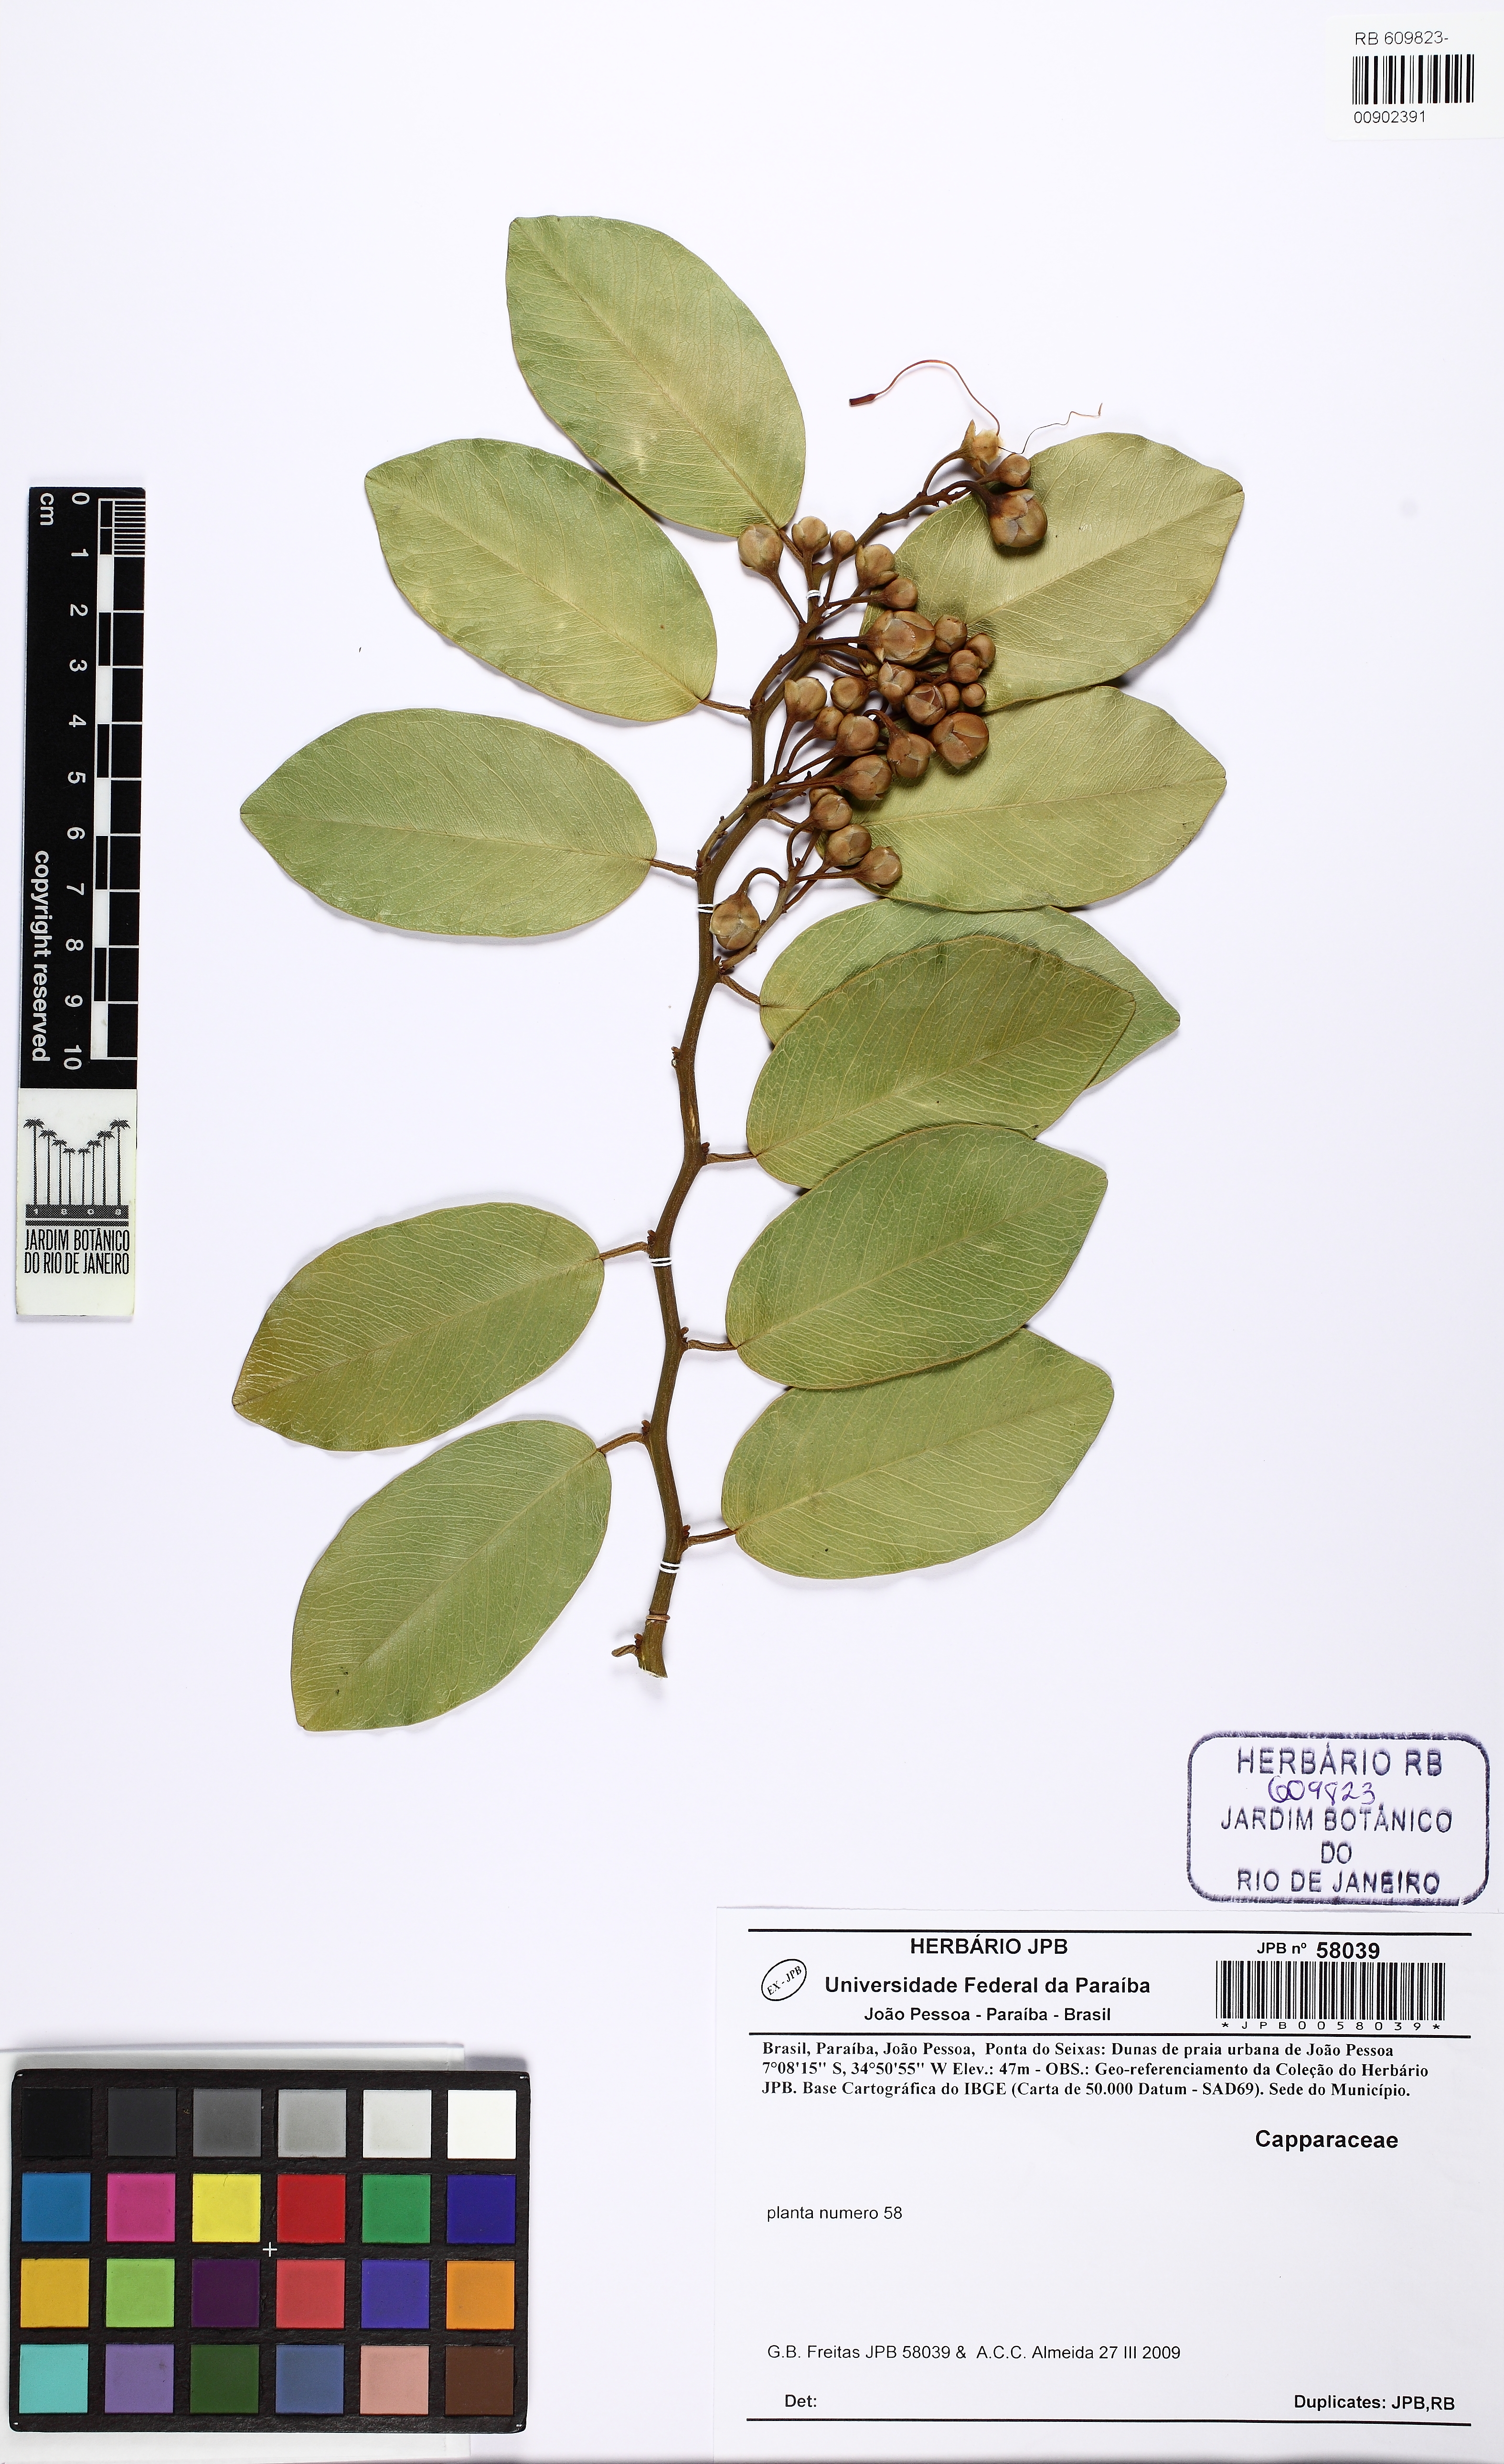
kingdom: Plantae
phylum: Tracheophyta
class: Magnoliopsida
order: Brassicales
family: Capparaceae
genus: Cynophalla
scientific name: Cynophalla flexuosa
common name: Capertree
